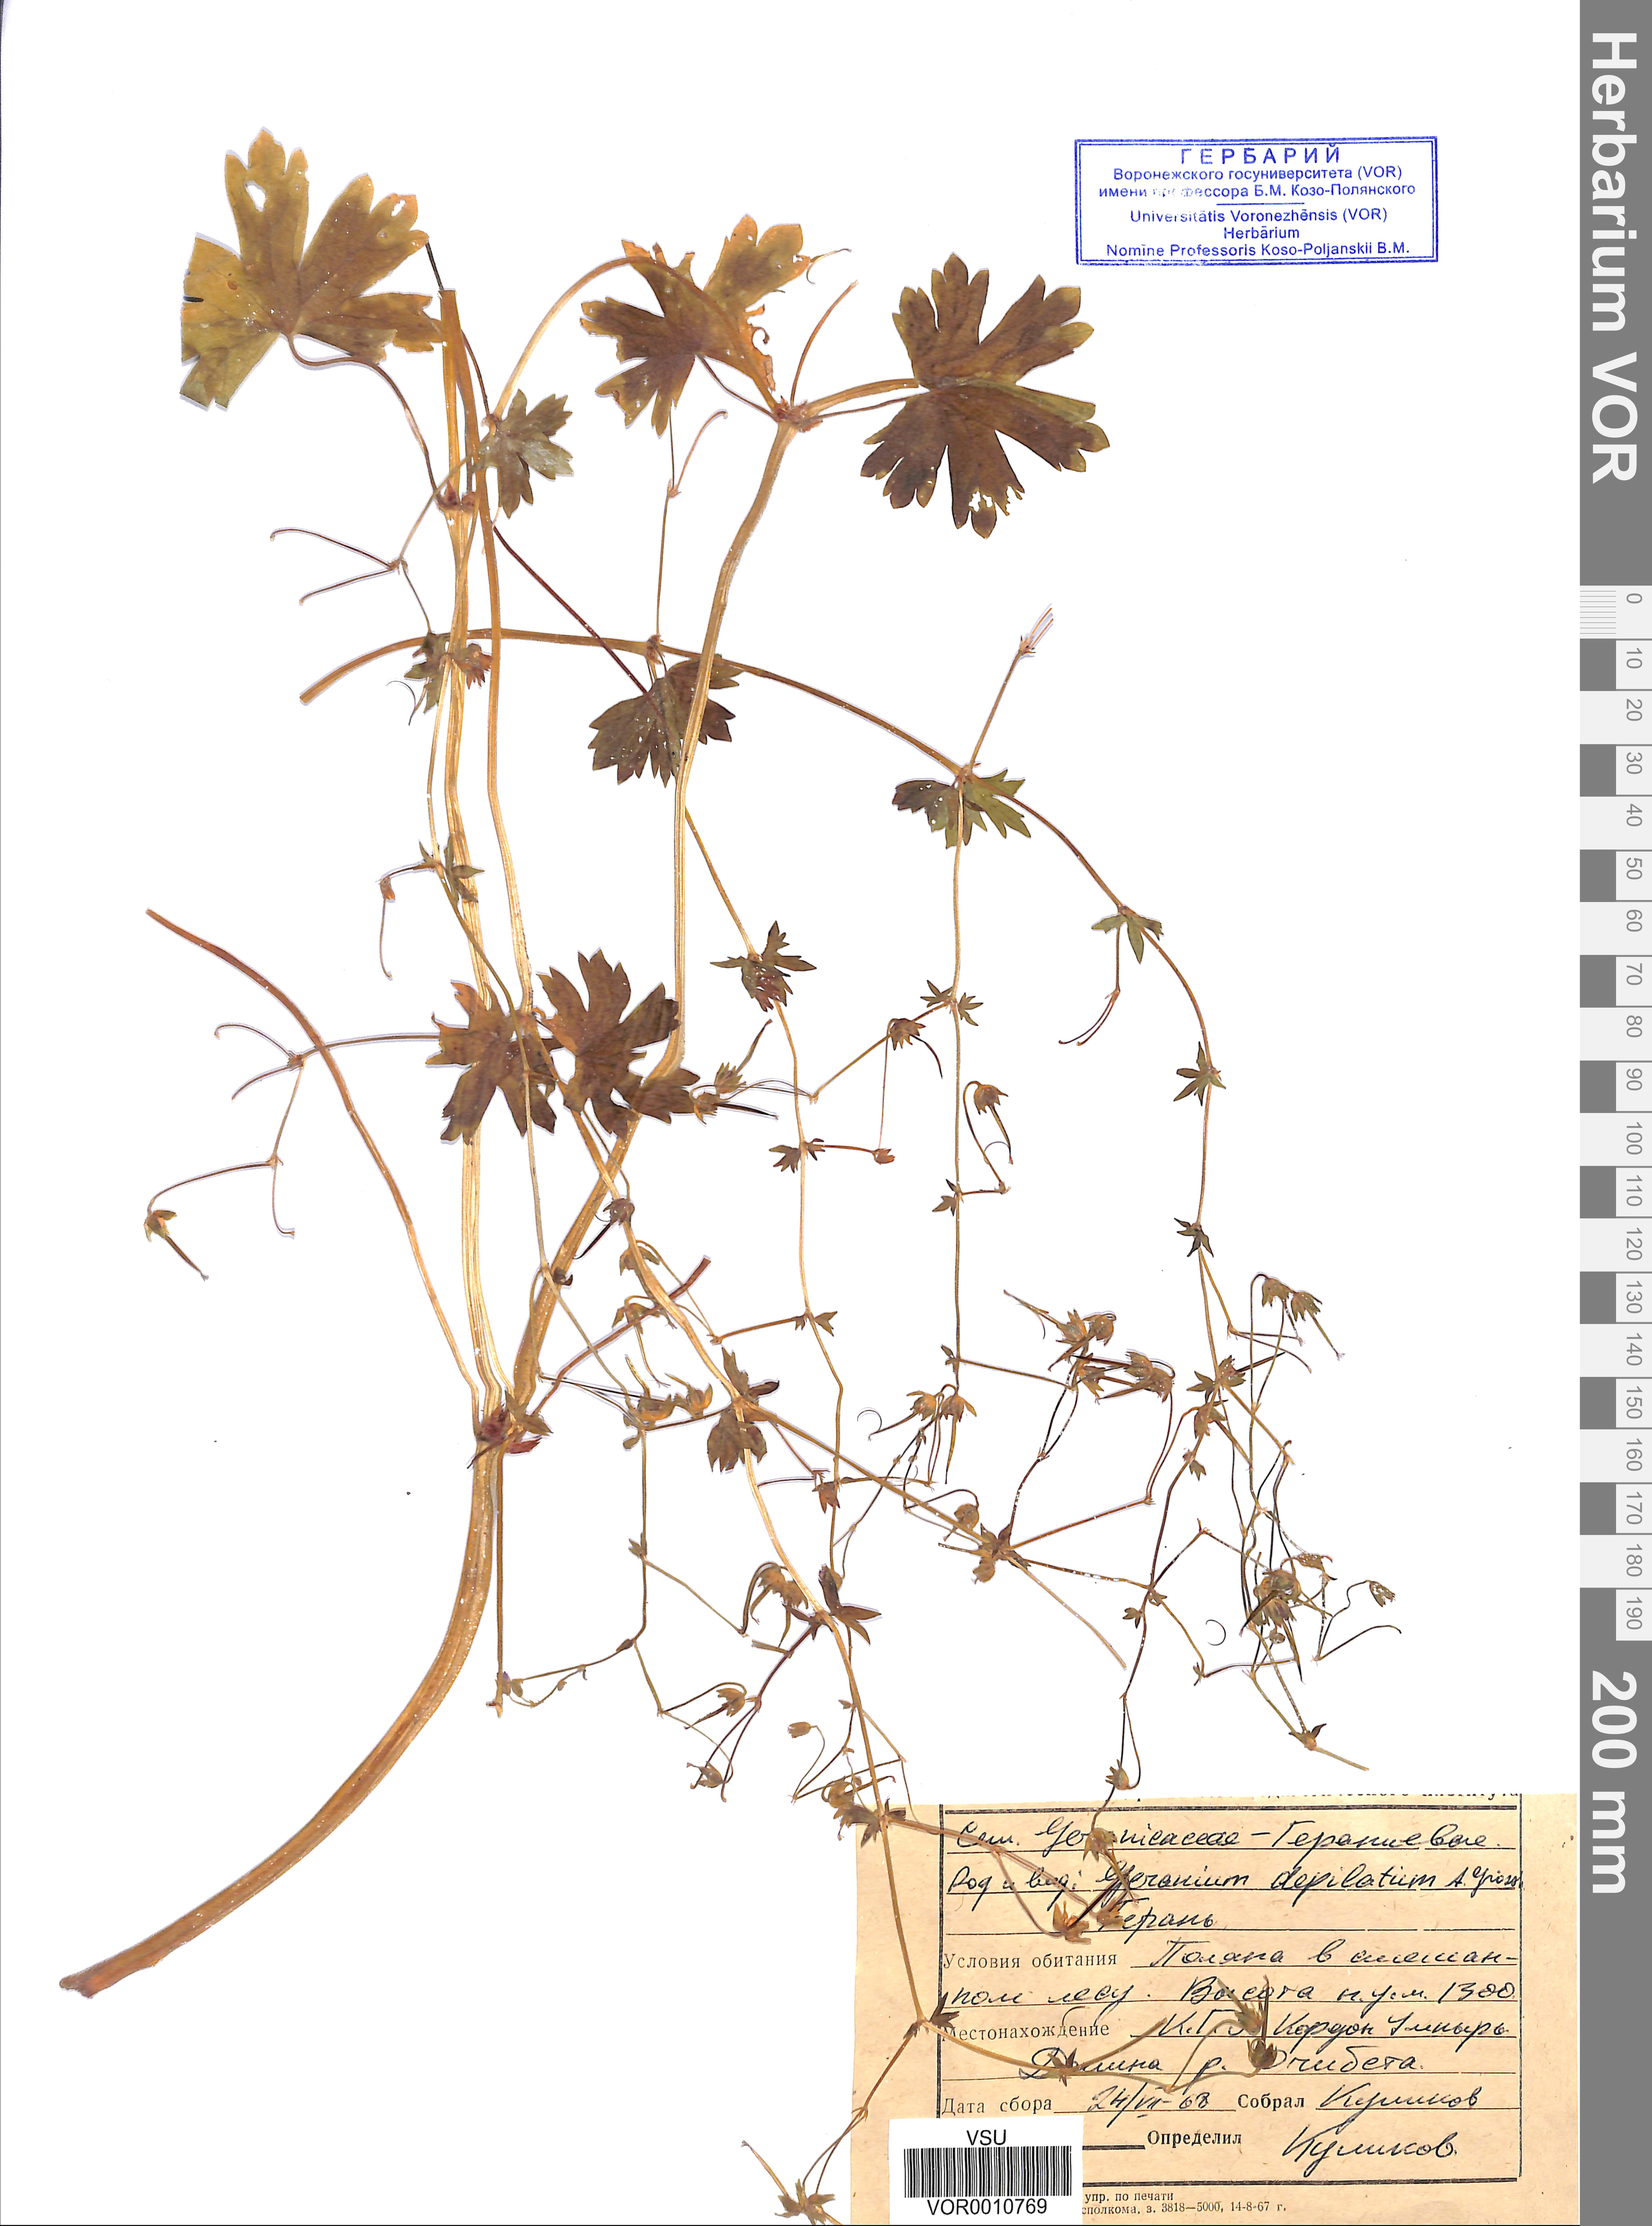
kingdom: Plantae
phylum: Tracheophyta
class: Magnoliopsida
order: Geraniales
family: Geraniaceae
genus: Geranium
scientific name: Geranium pyrenaicum
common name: Hedgerow crane's-bill
